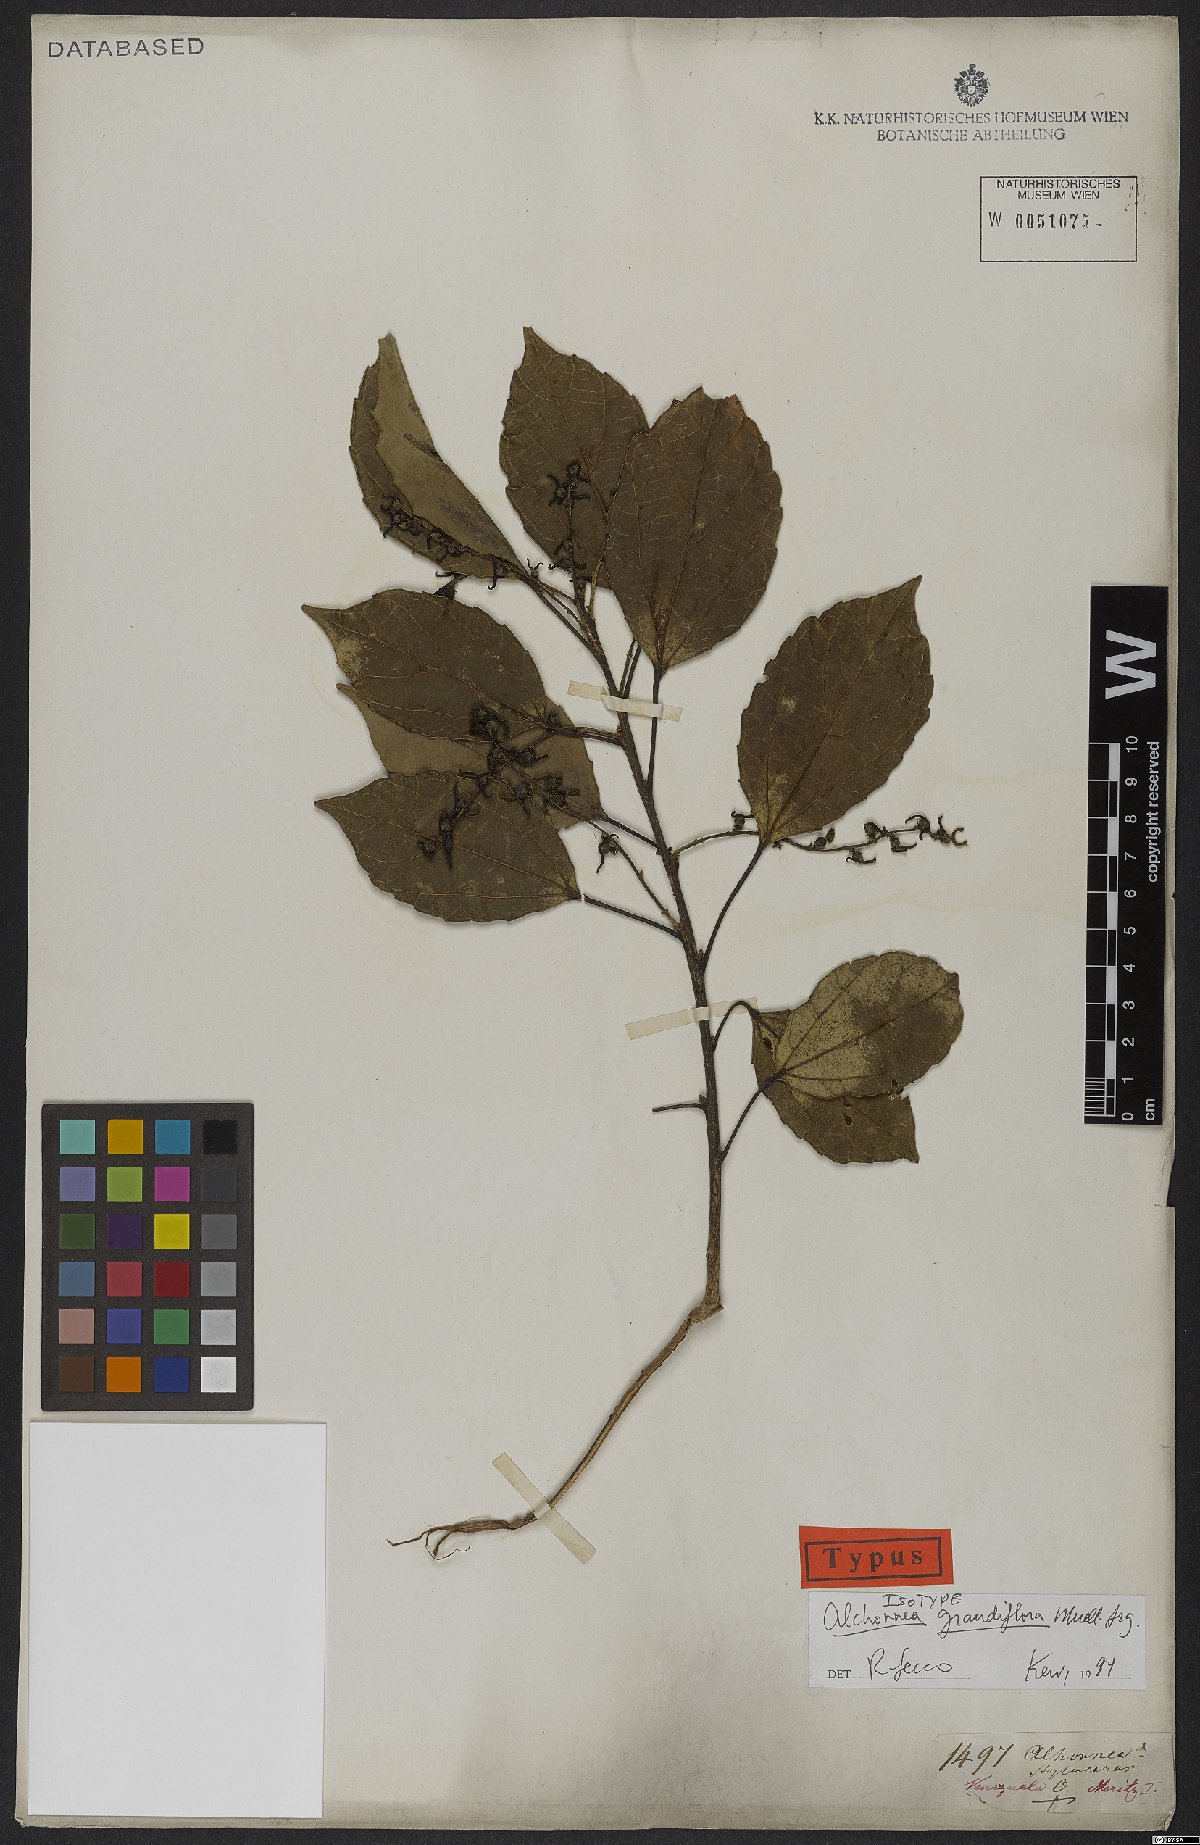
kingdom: Plantae
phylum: Tracheophyta
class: Magnoliopsida
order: Malpighiales
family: Euphorbiaceae
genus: Alchornea
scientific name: Alchornea grandiflora
